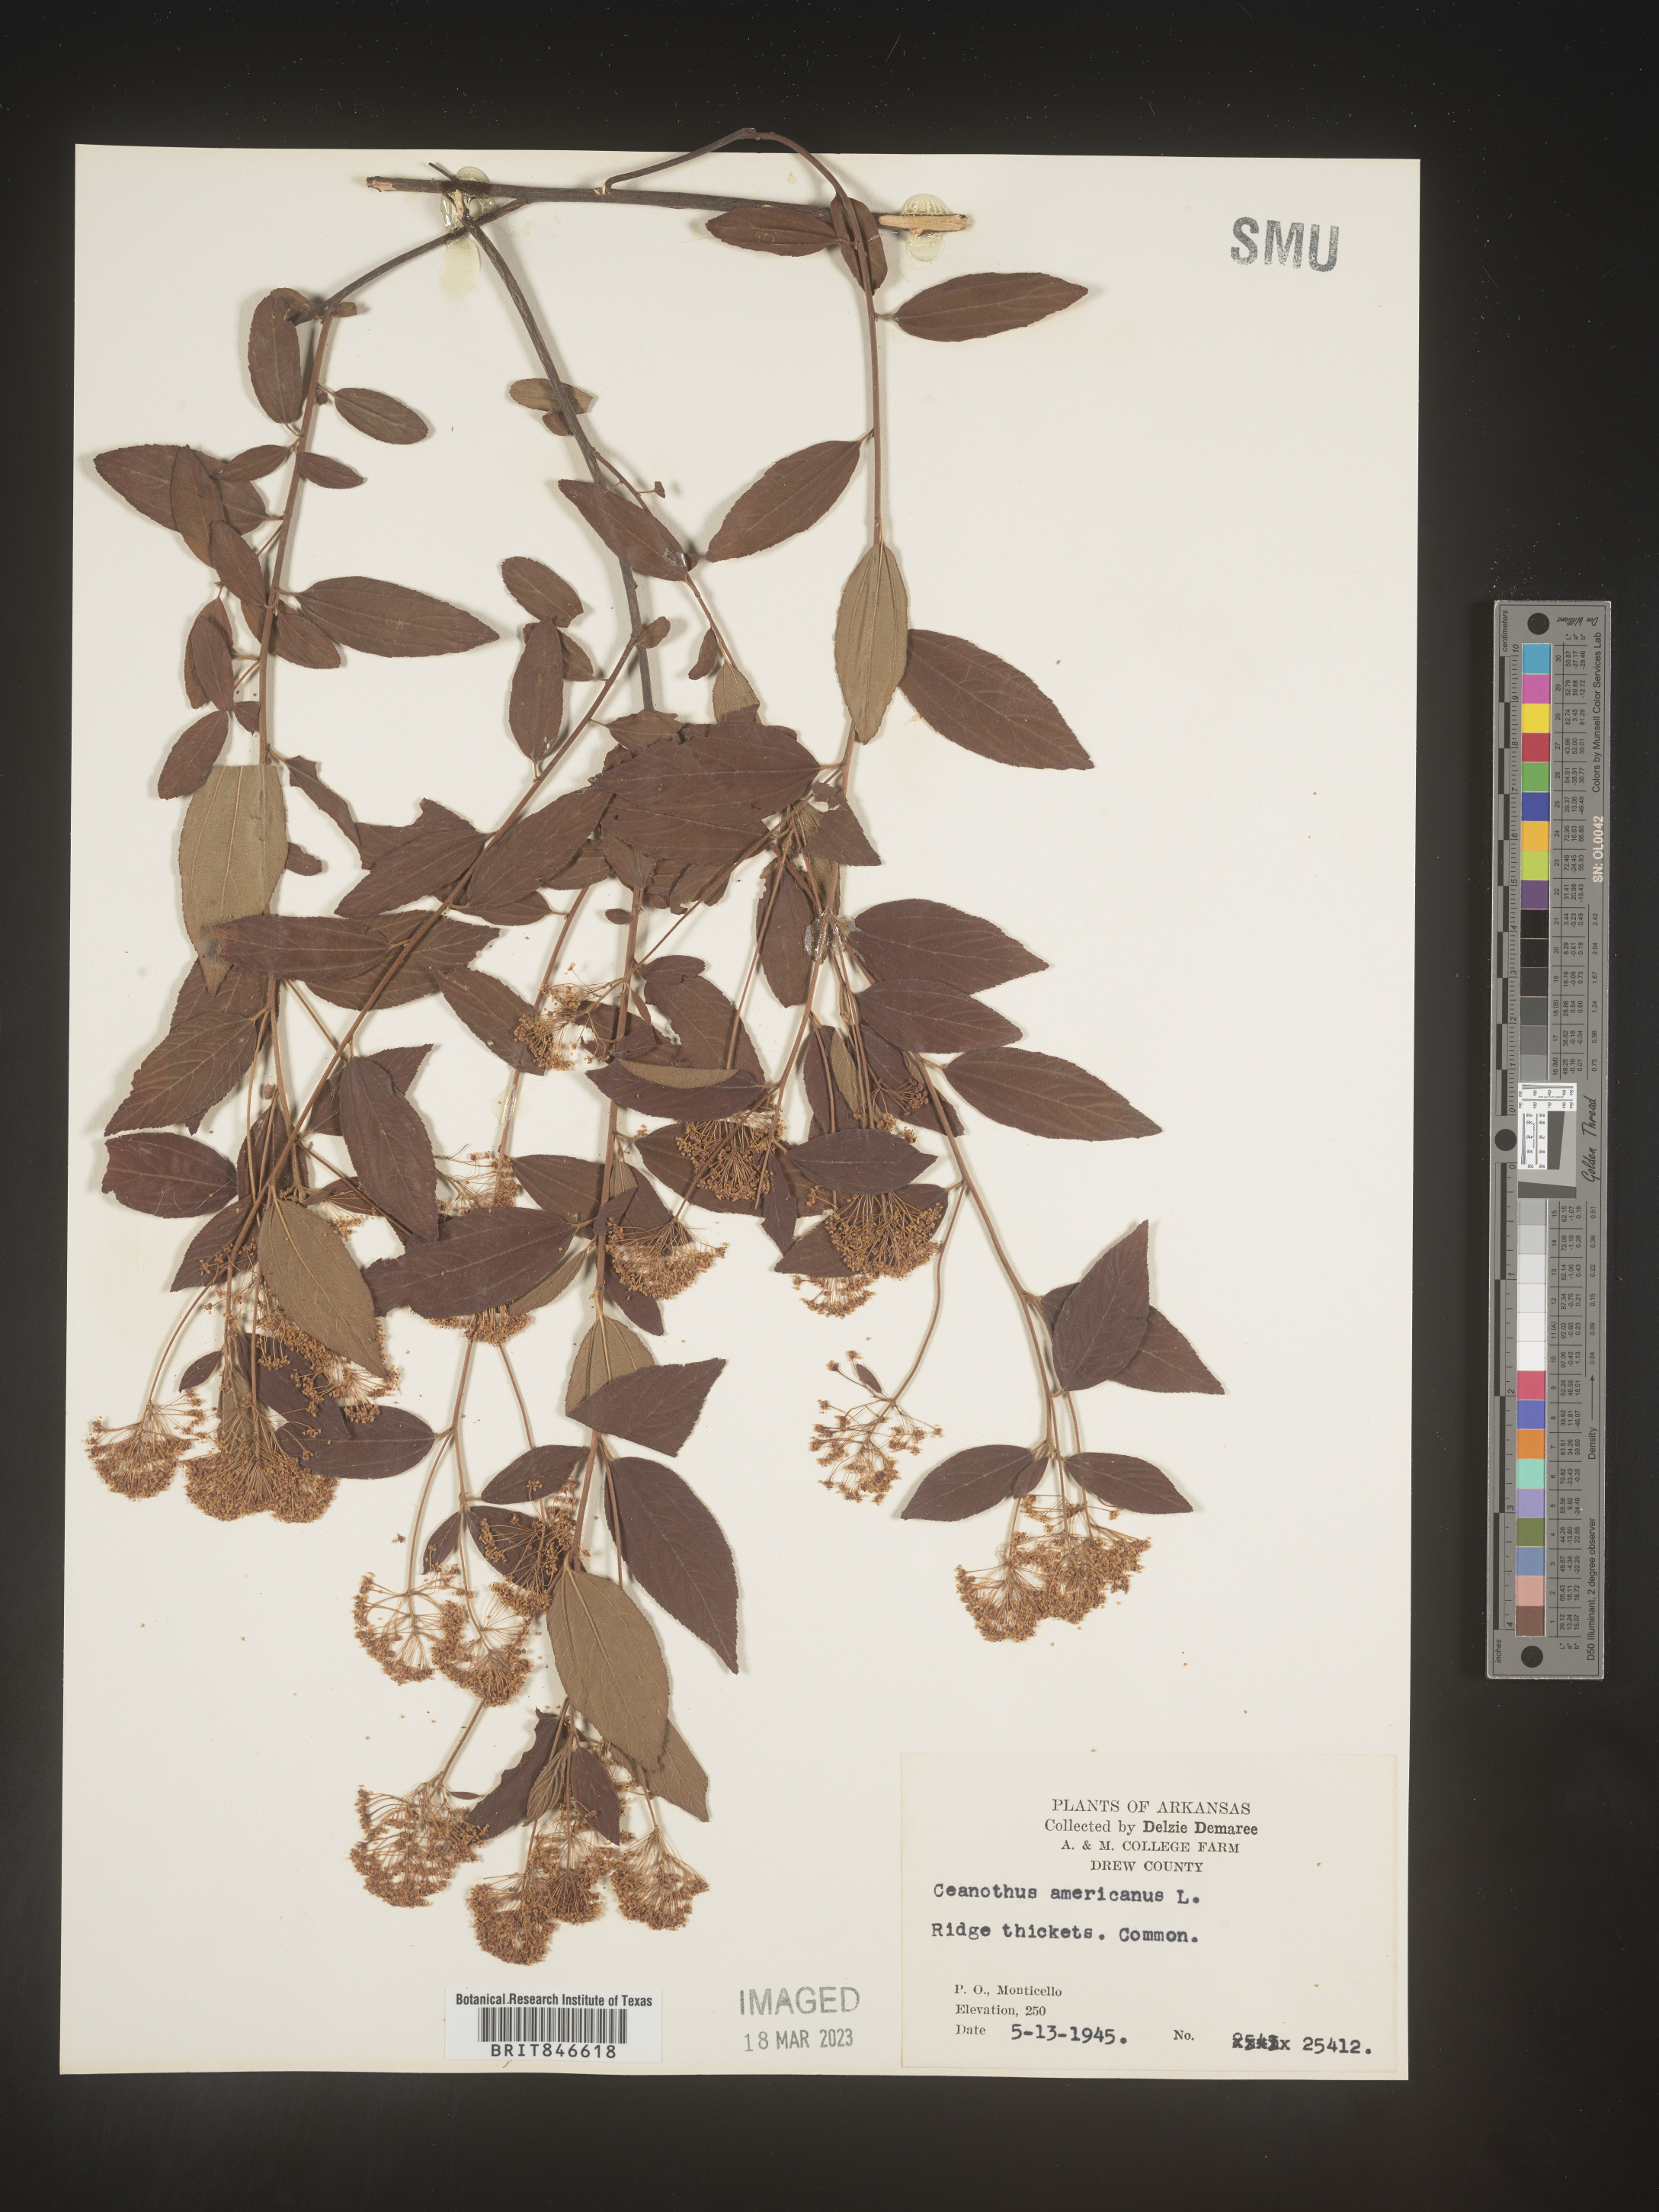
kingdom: Plantae
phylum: Tracheophyta
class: Magnoliopsida
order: Rosales
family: Rhamnaceae
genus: Ceanothus
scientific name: Ceanothus americanus
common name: Redroot
